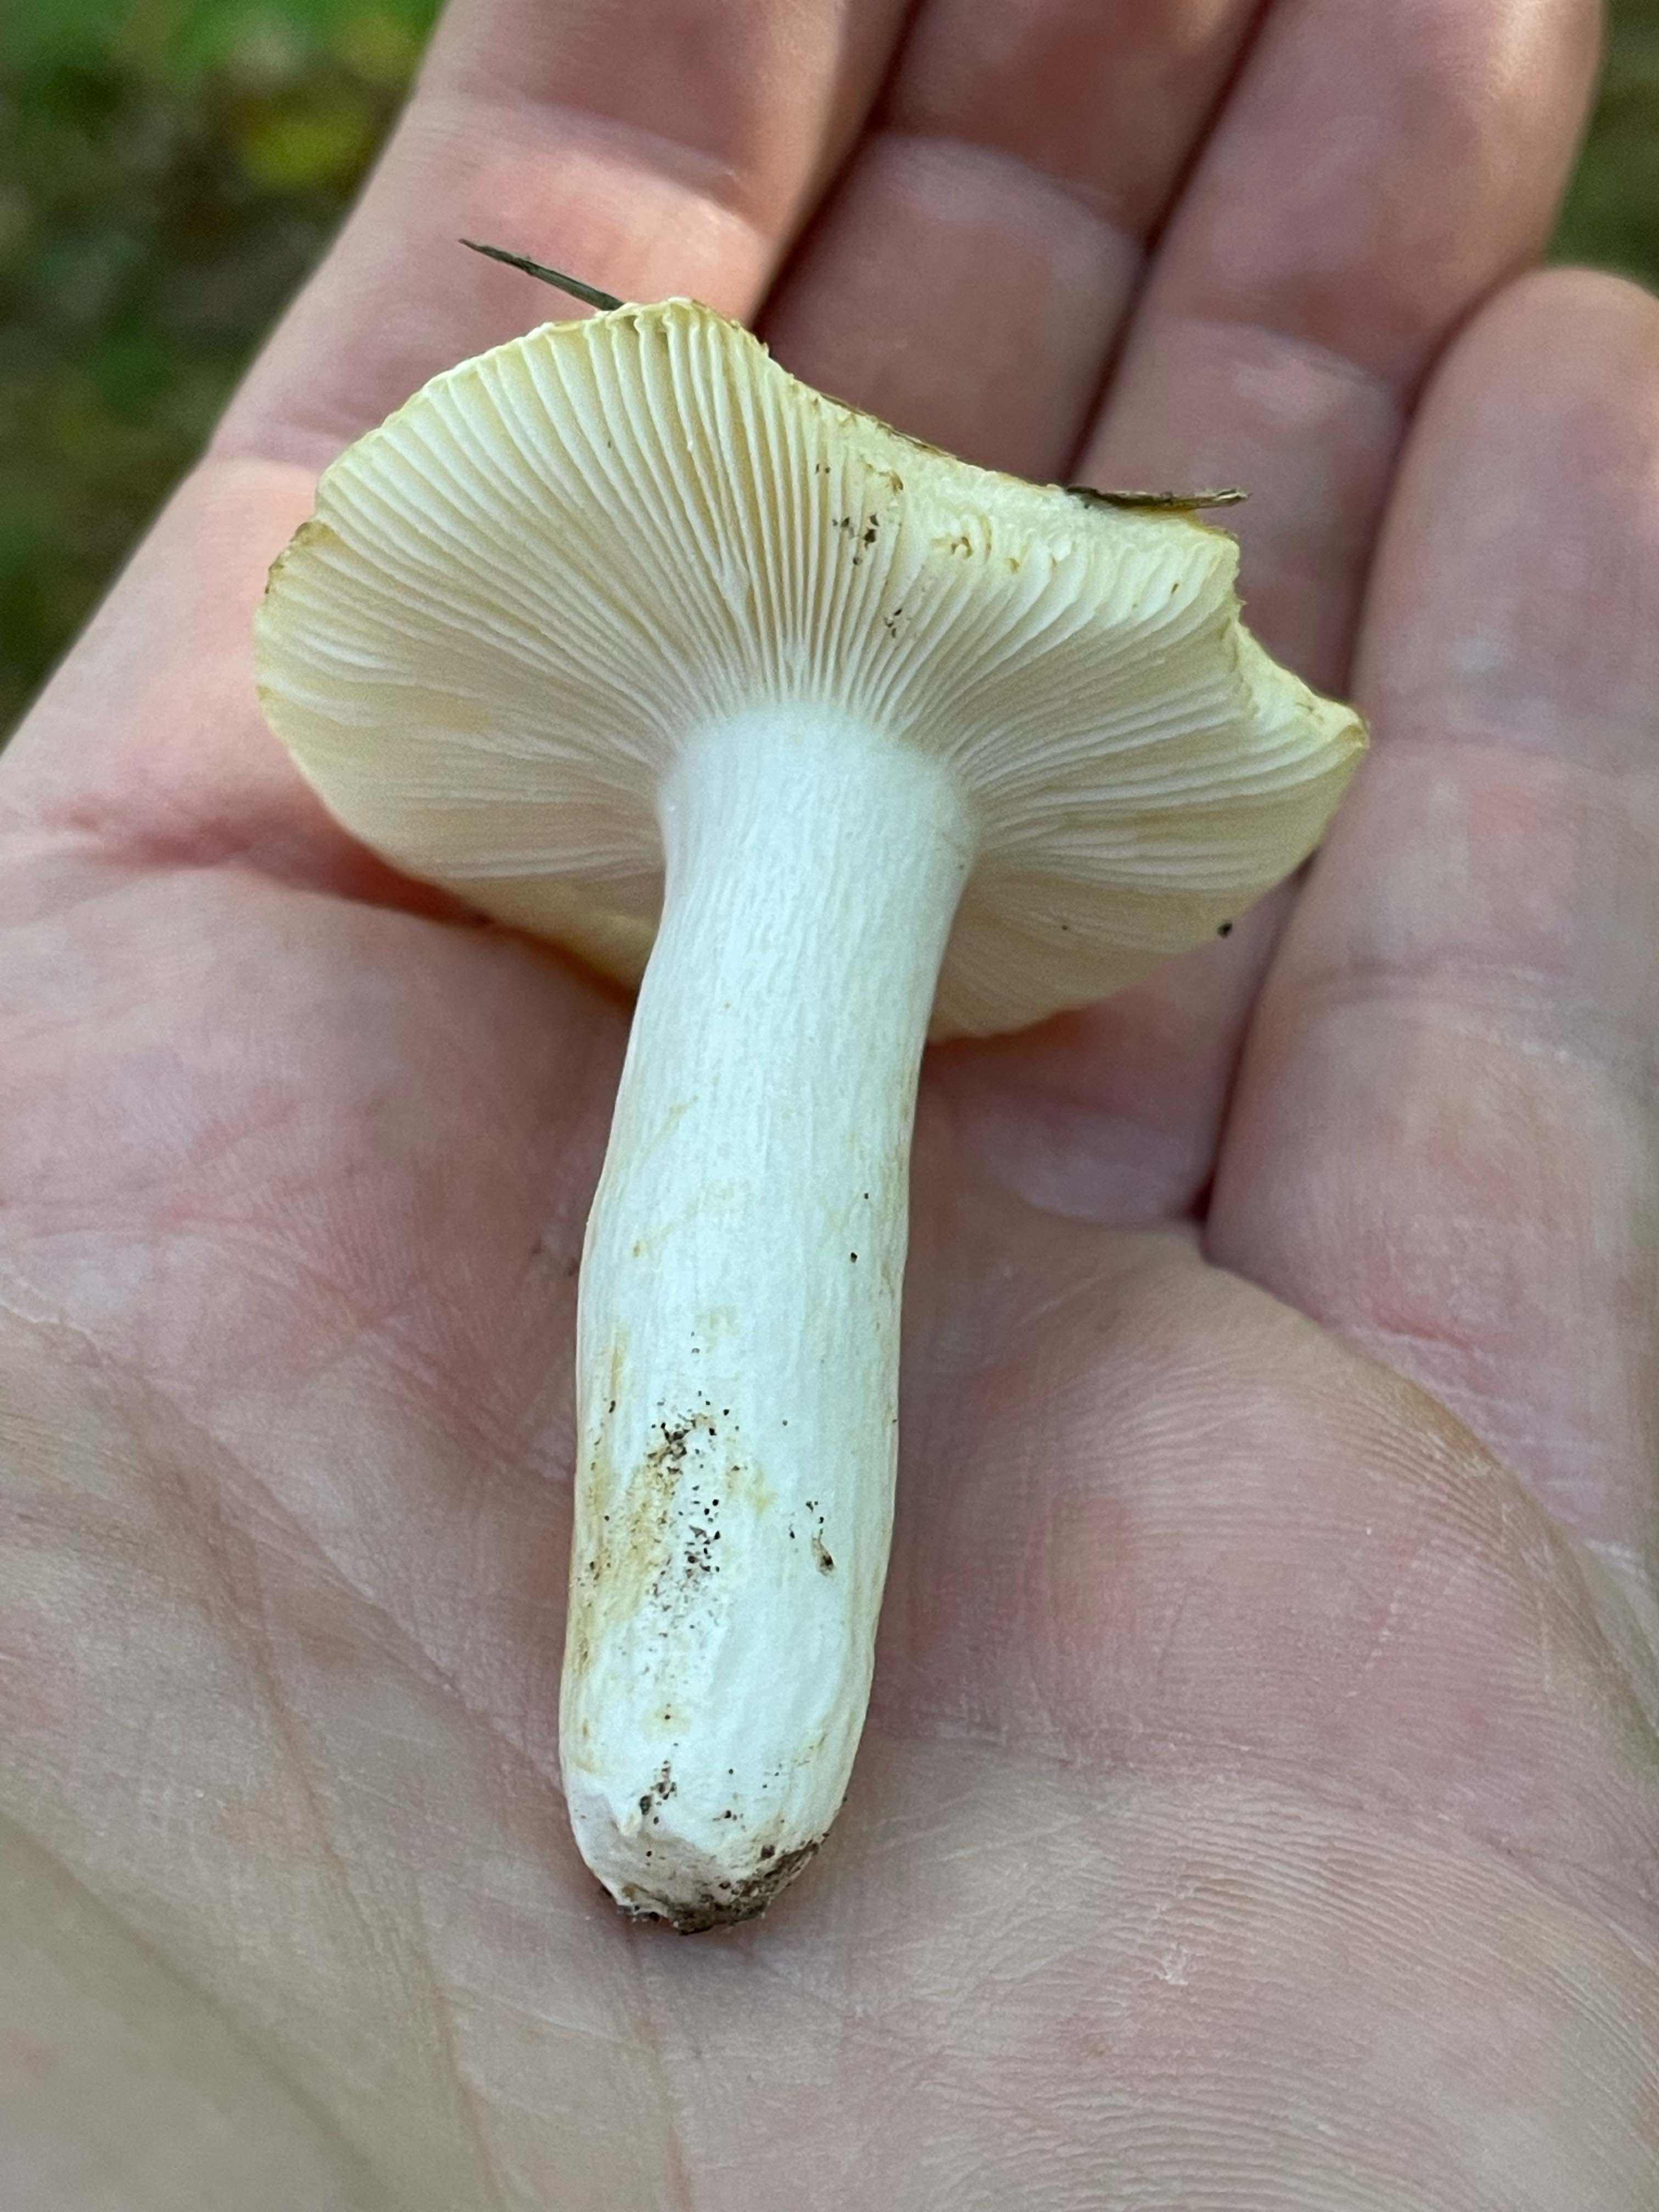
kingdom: Fungi
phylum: Basidiomycota
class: Agaricomycetes
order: Russulales
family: Russulaceae
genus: Russula
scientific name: Russula ochroleuca
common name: okkergul skørhat
